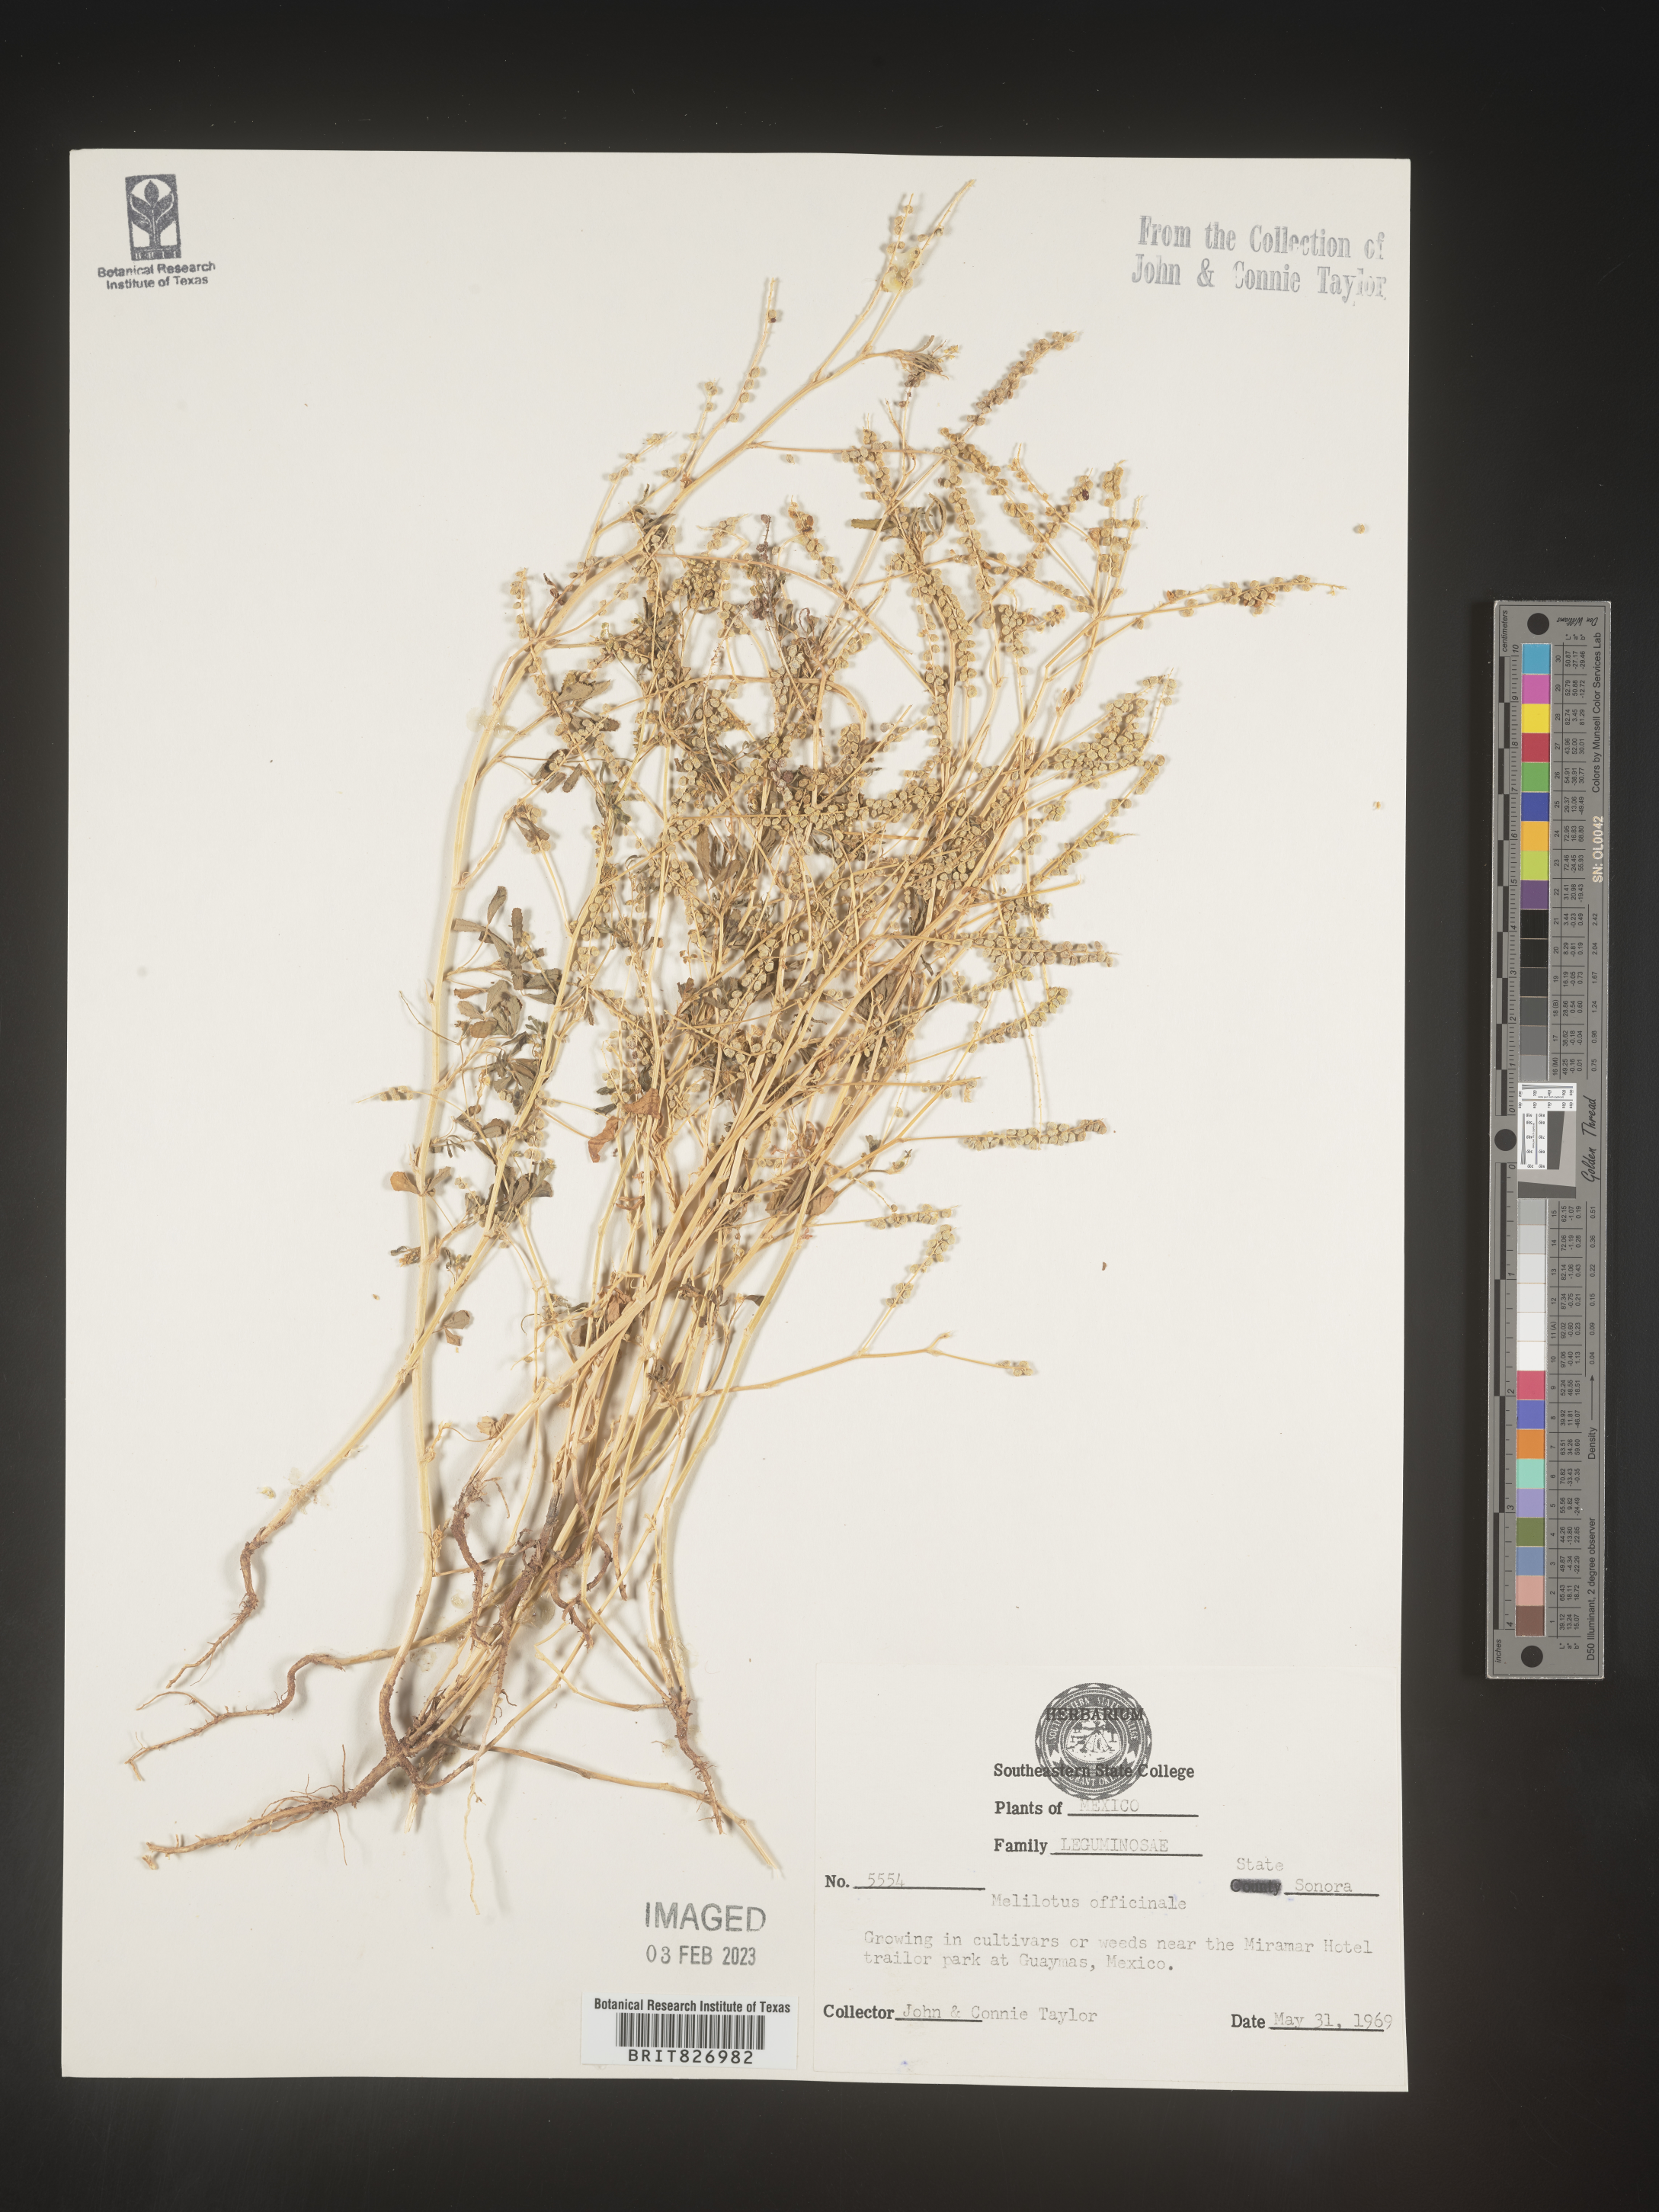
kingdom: Plantae
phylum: Tracheophyta
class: Magnoliopsida
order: Fabales
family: Fabaceae
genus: Melilotus
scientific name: Melilotus
